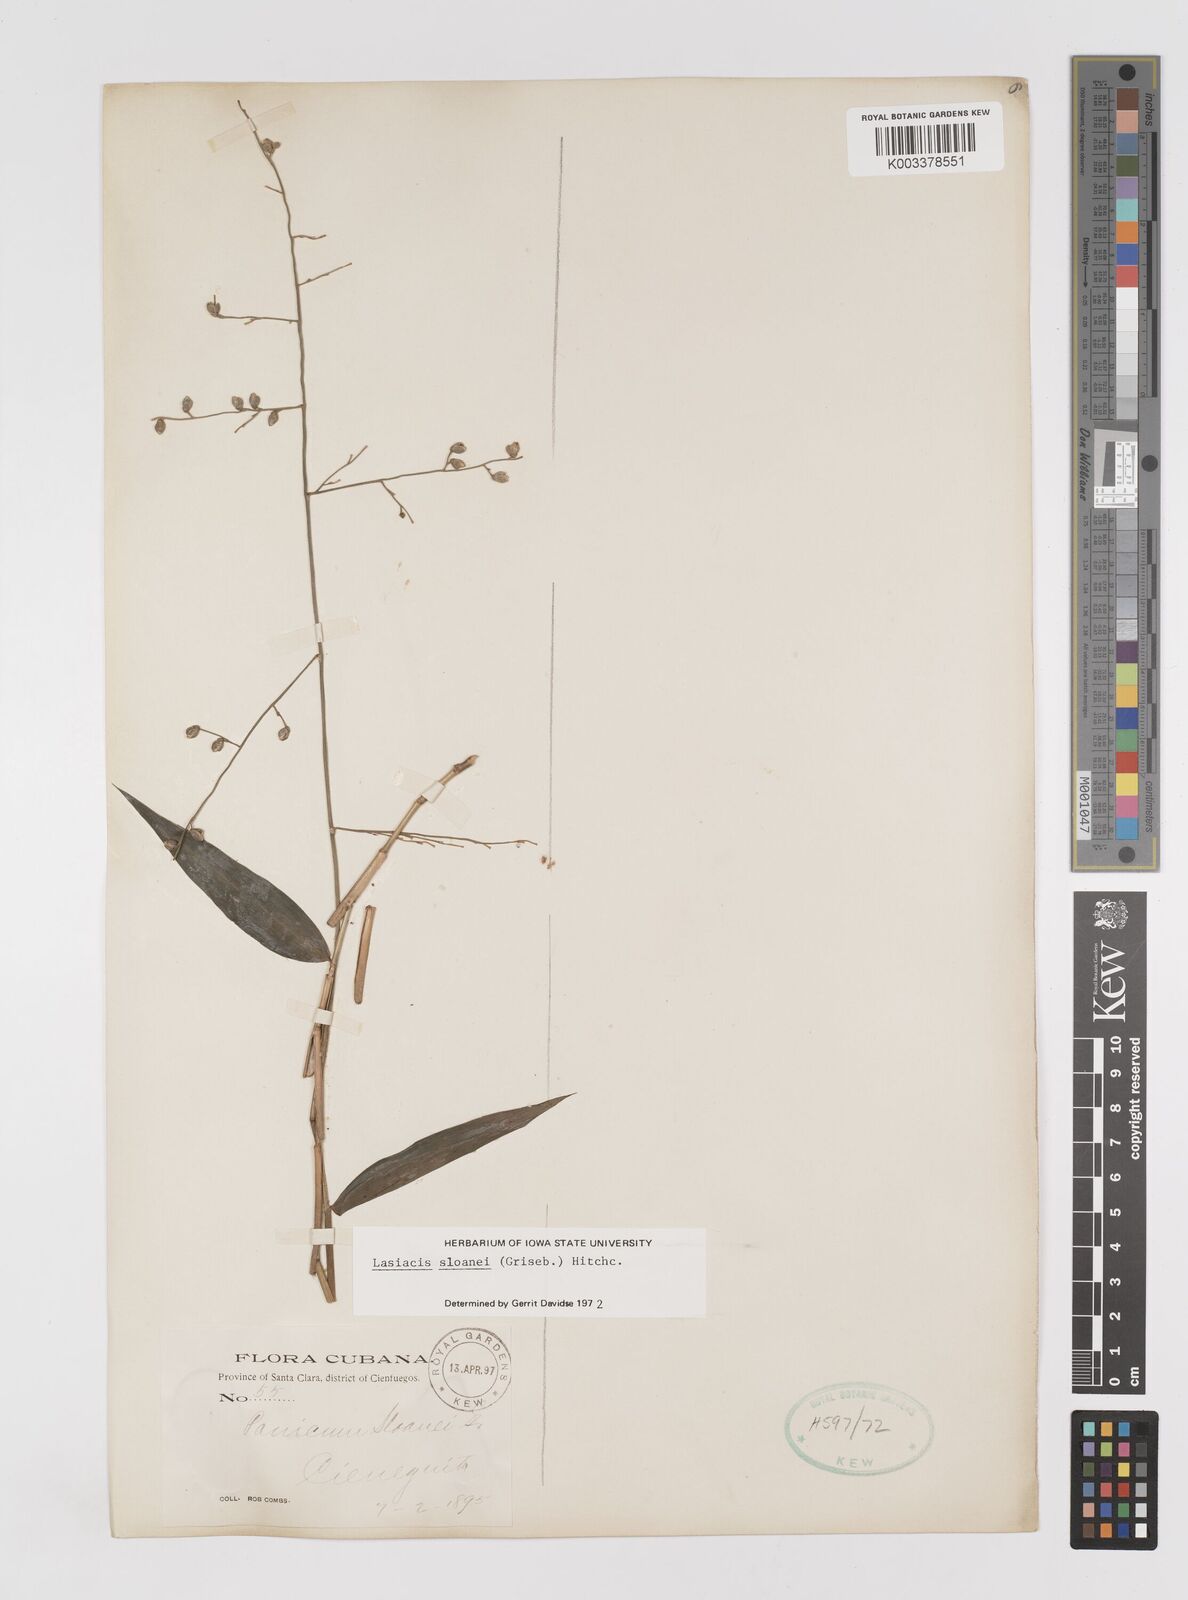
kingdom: Plantae
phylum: Tracheophyta
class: Liliopsida
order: Poales
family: Poaceae
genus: Lasiacis
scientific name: Lasiacis sloanei
